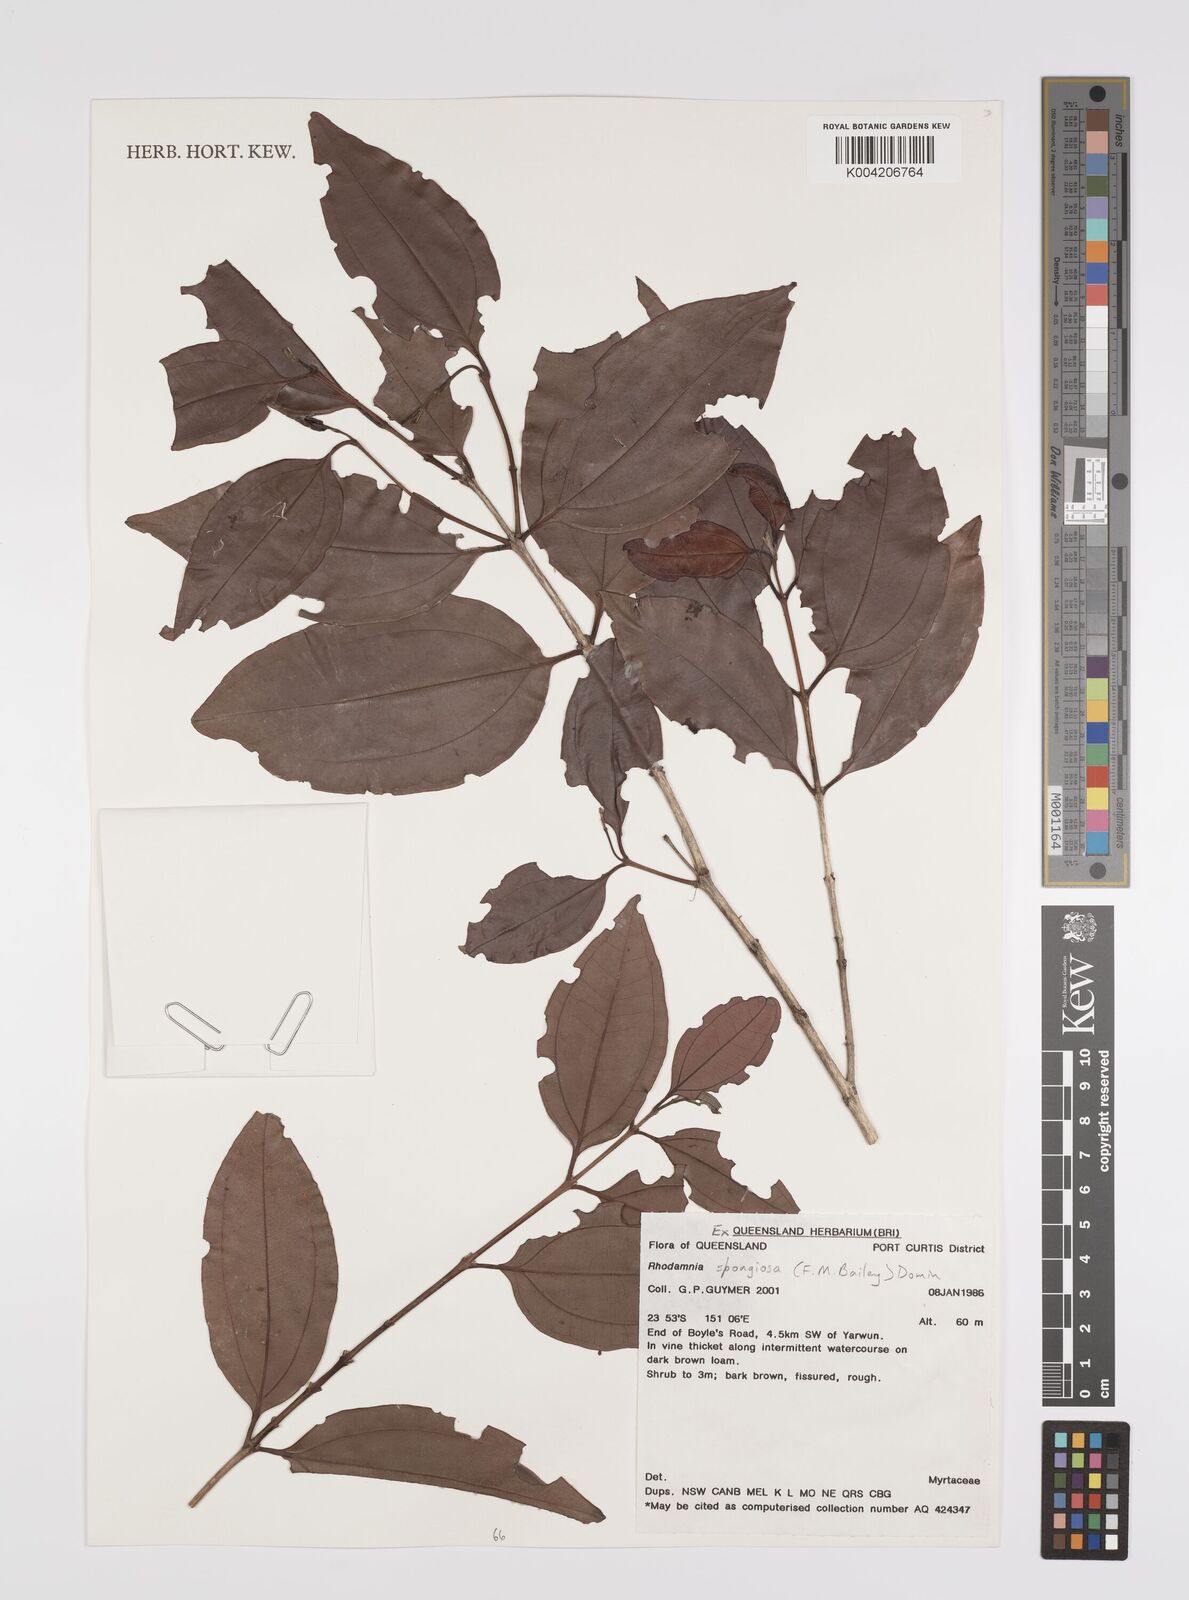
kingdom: Plantae
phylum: Tracheophyta
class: Magnoliopsida
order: Myrtales
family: Myrtaceae
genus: Rhodamnia
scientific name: Rhodamnia glauca
